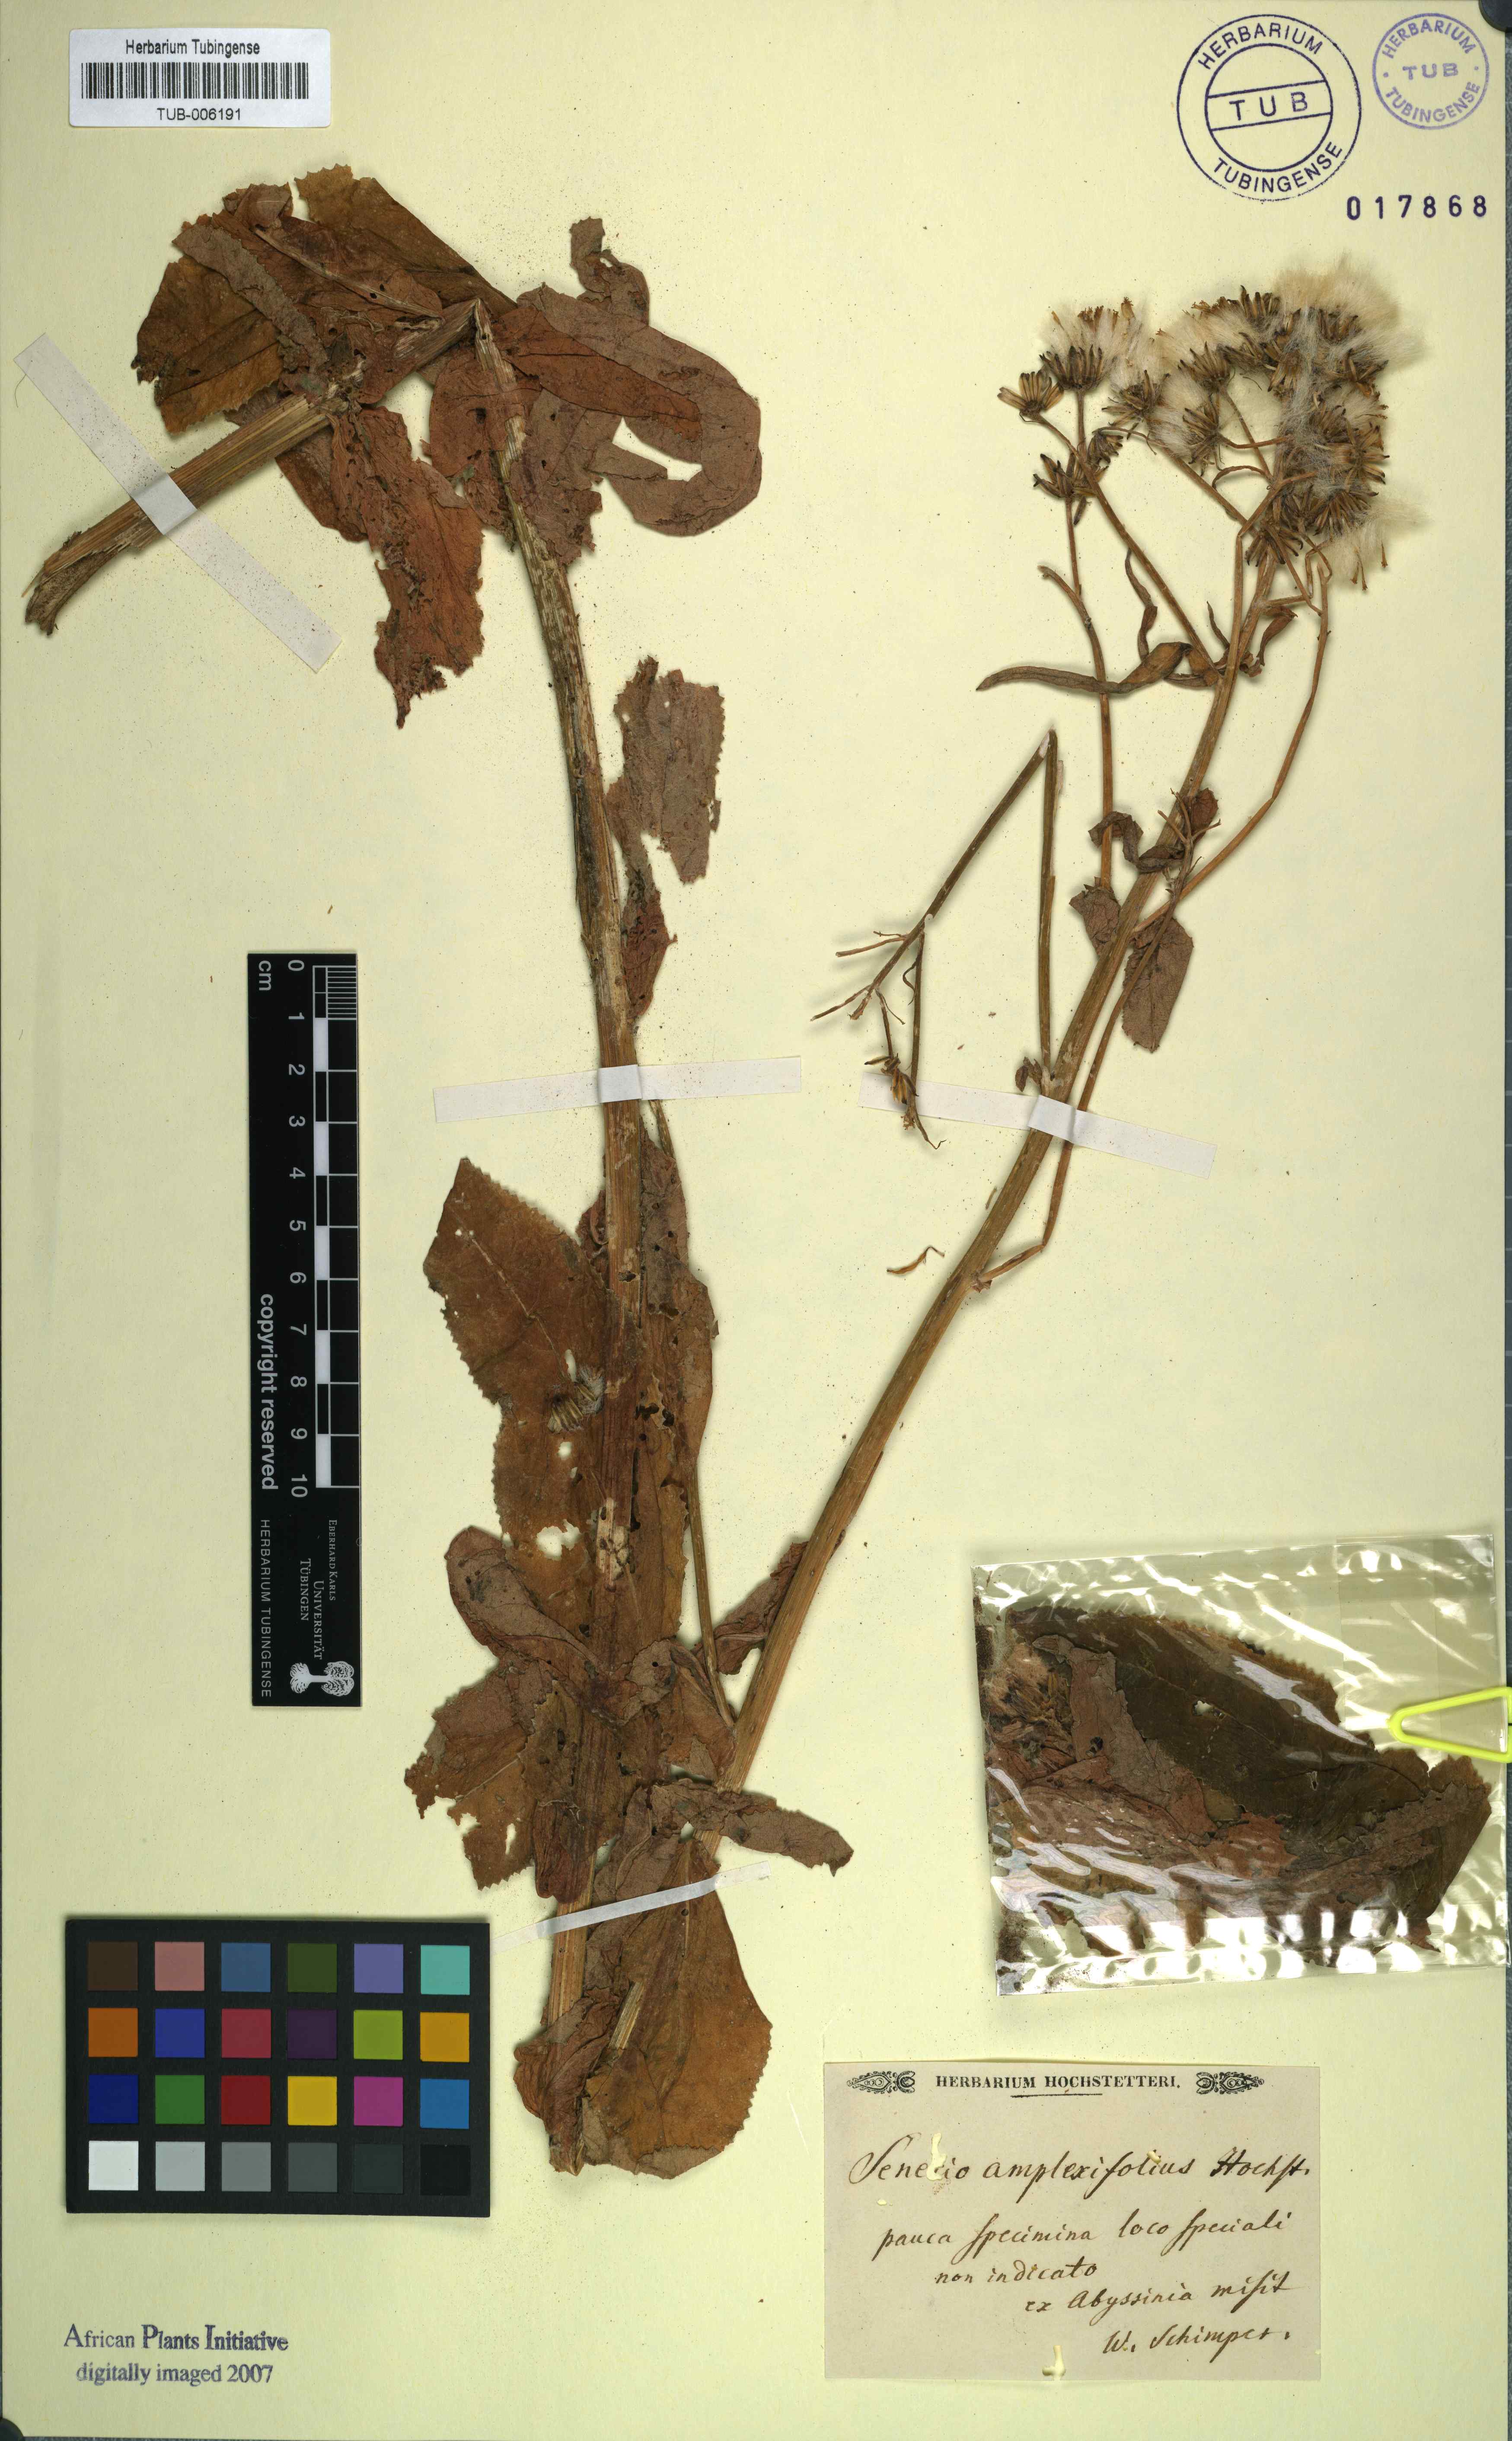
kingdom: Plantae
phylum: Tracheophyta
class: Magnoliopsida
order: Asterales
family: Asteraceae
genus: Humbertacalia
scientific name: Humbertacalia amplexifolia
